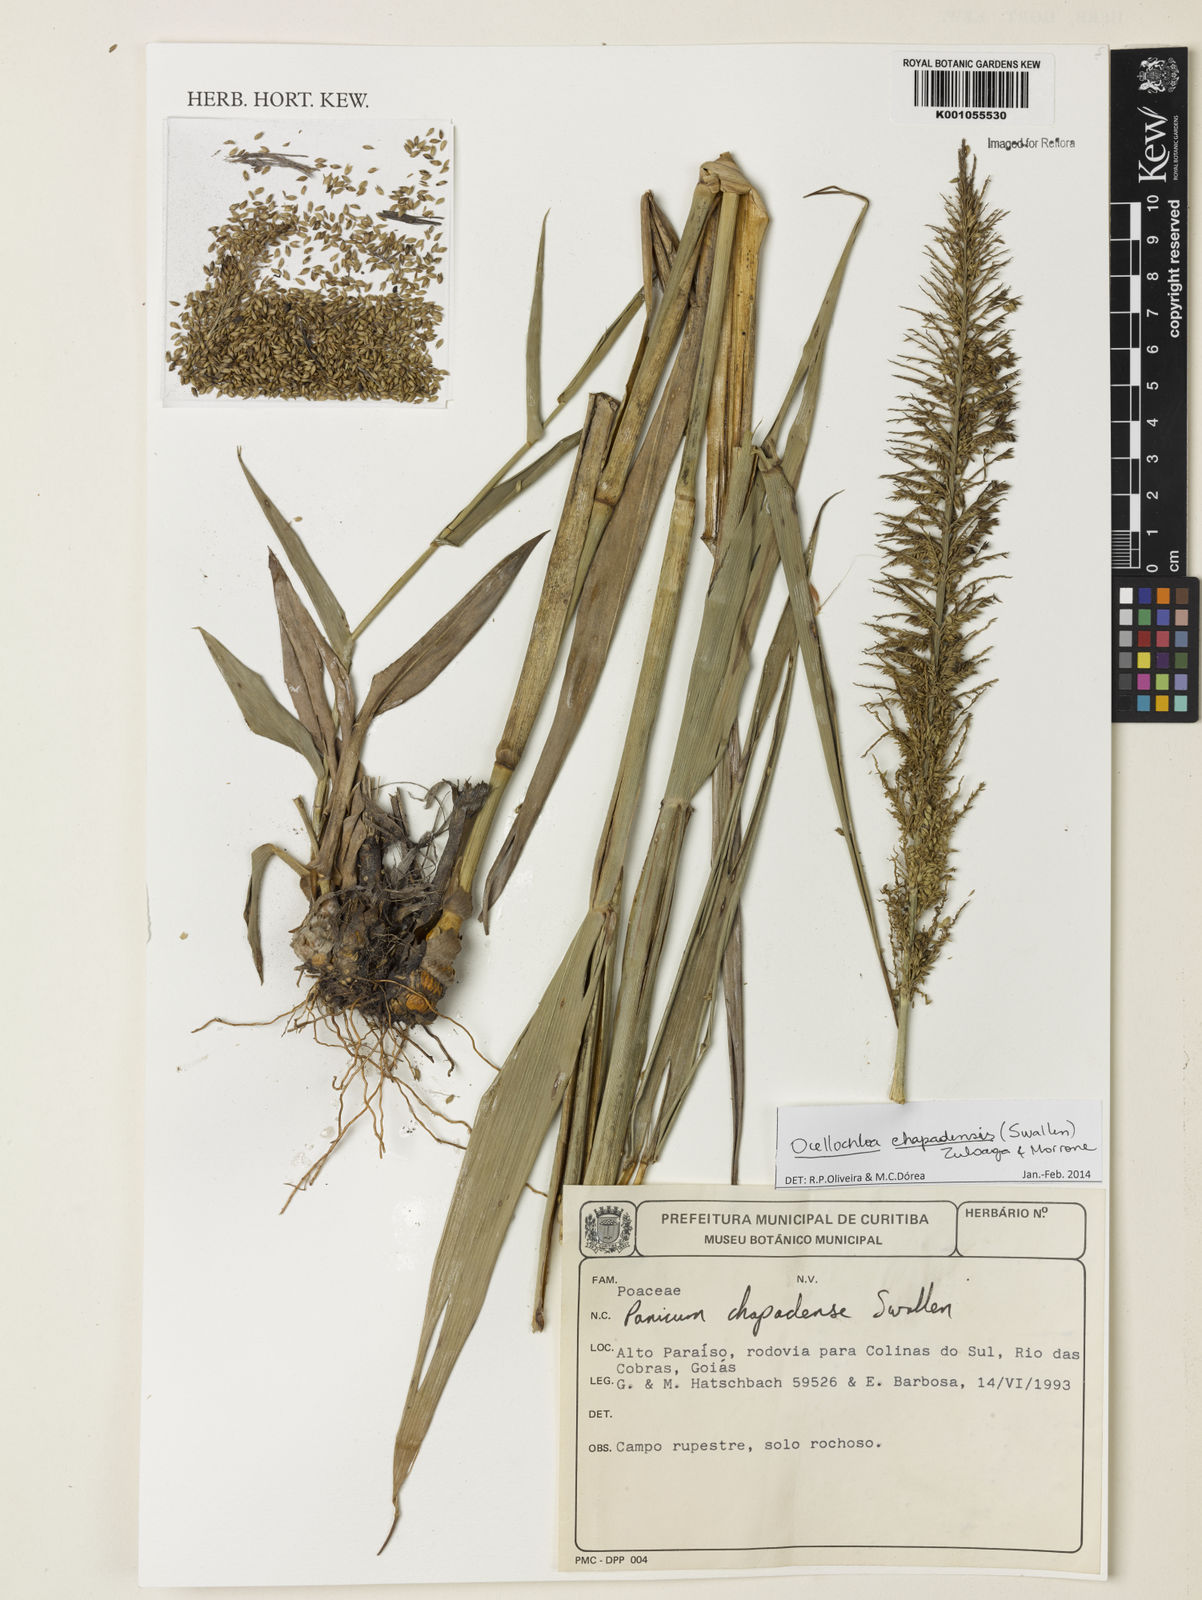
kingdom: Plantae
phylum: Tracheophyta
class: Liliopsida
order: Poales
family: Poaceae
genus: Ocellochloa
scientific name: Ocellochloa chapadensis
